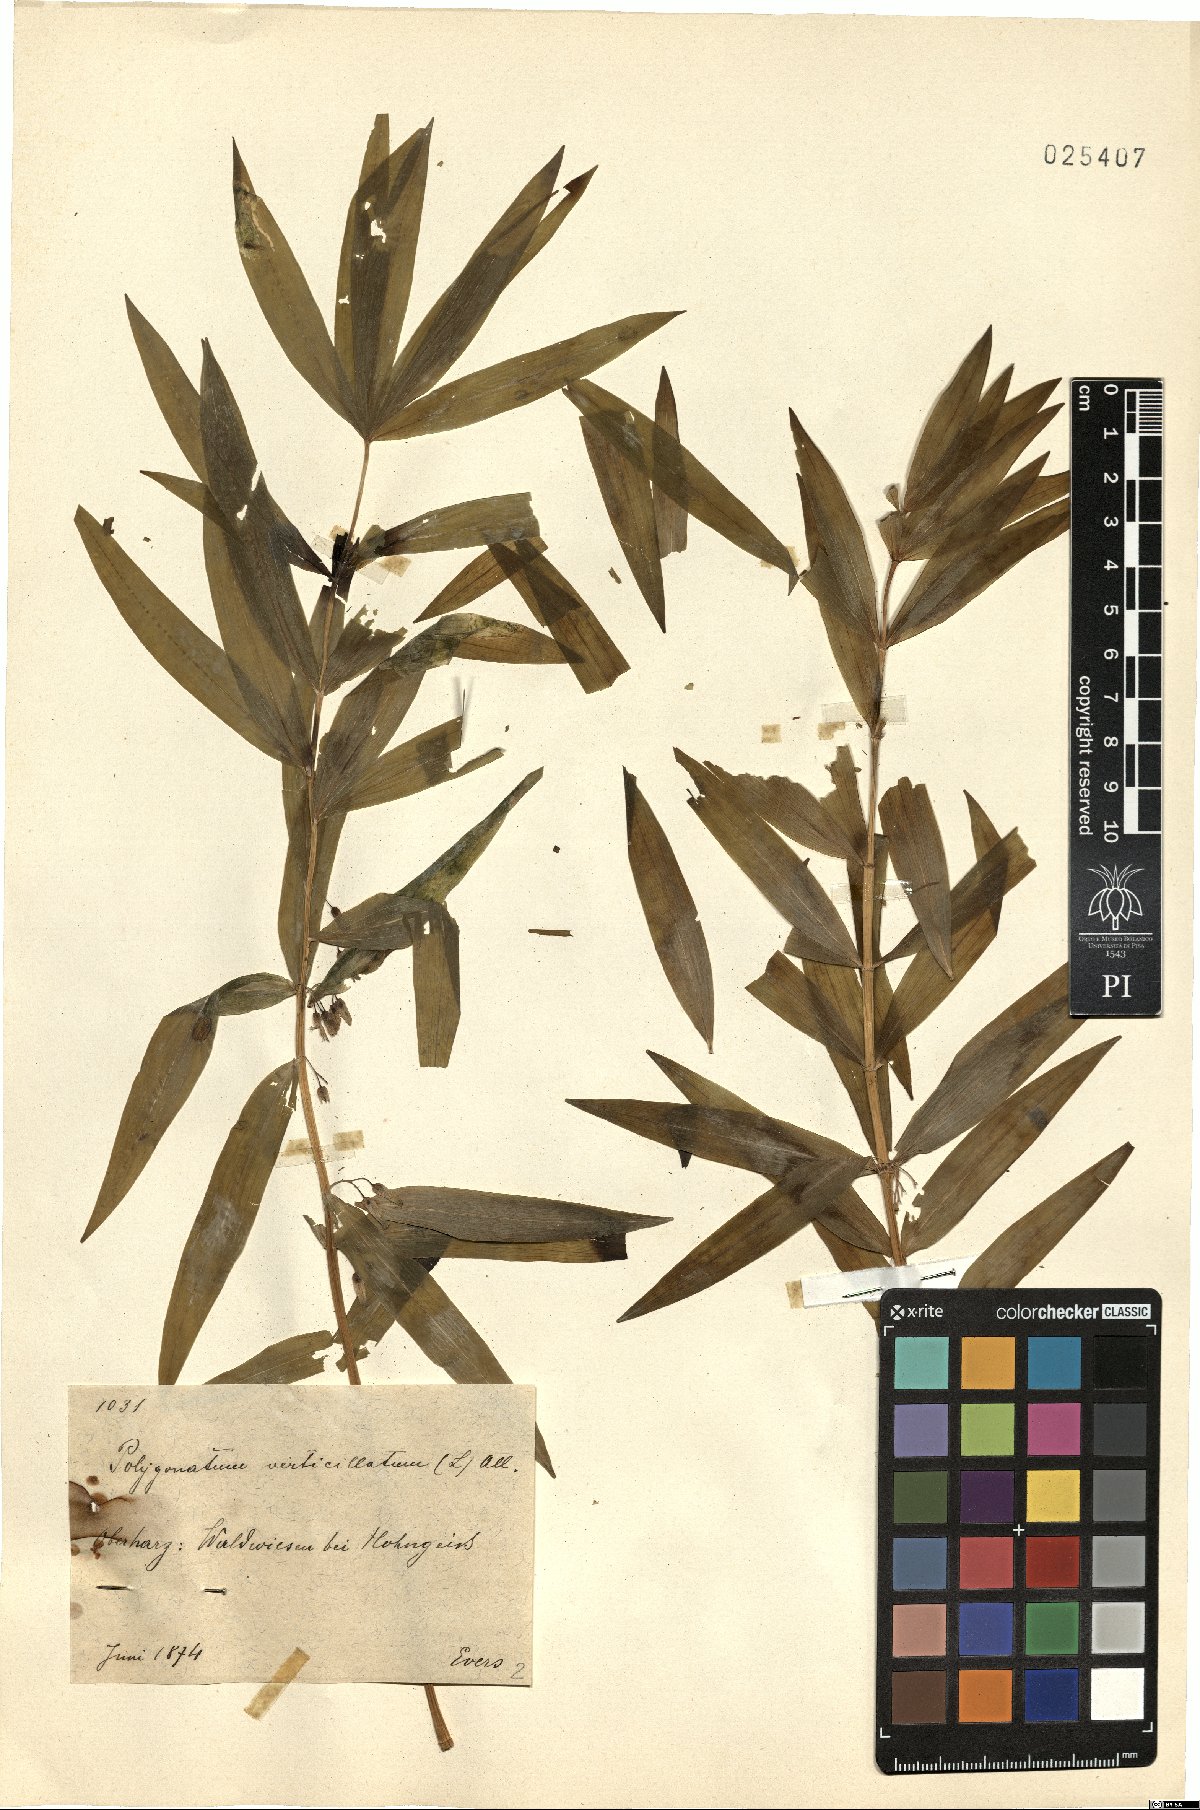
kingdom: Plantae
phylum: Tracheophyta
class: Liliopsida
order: Asparagales
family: Asparagaceae
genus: Polygonatum
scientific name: Polygonatum verticillatum
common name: Whorled solomon's-seal
